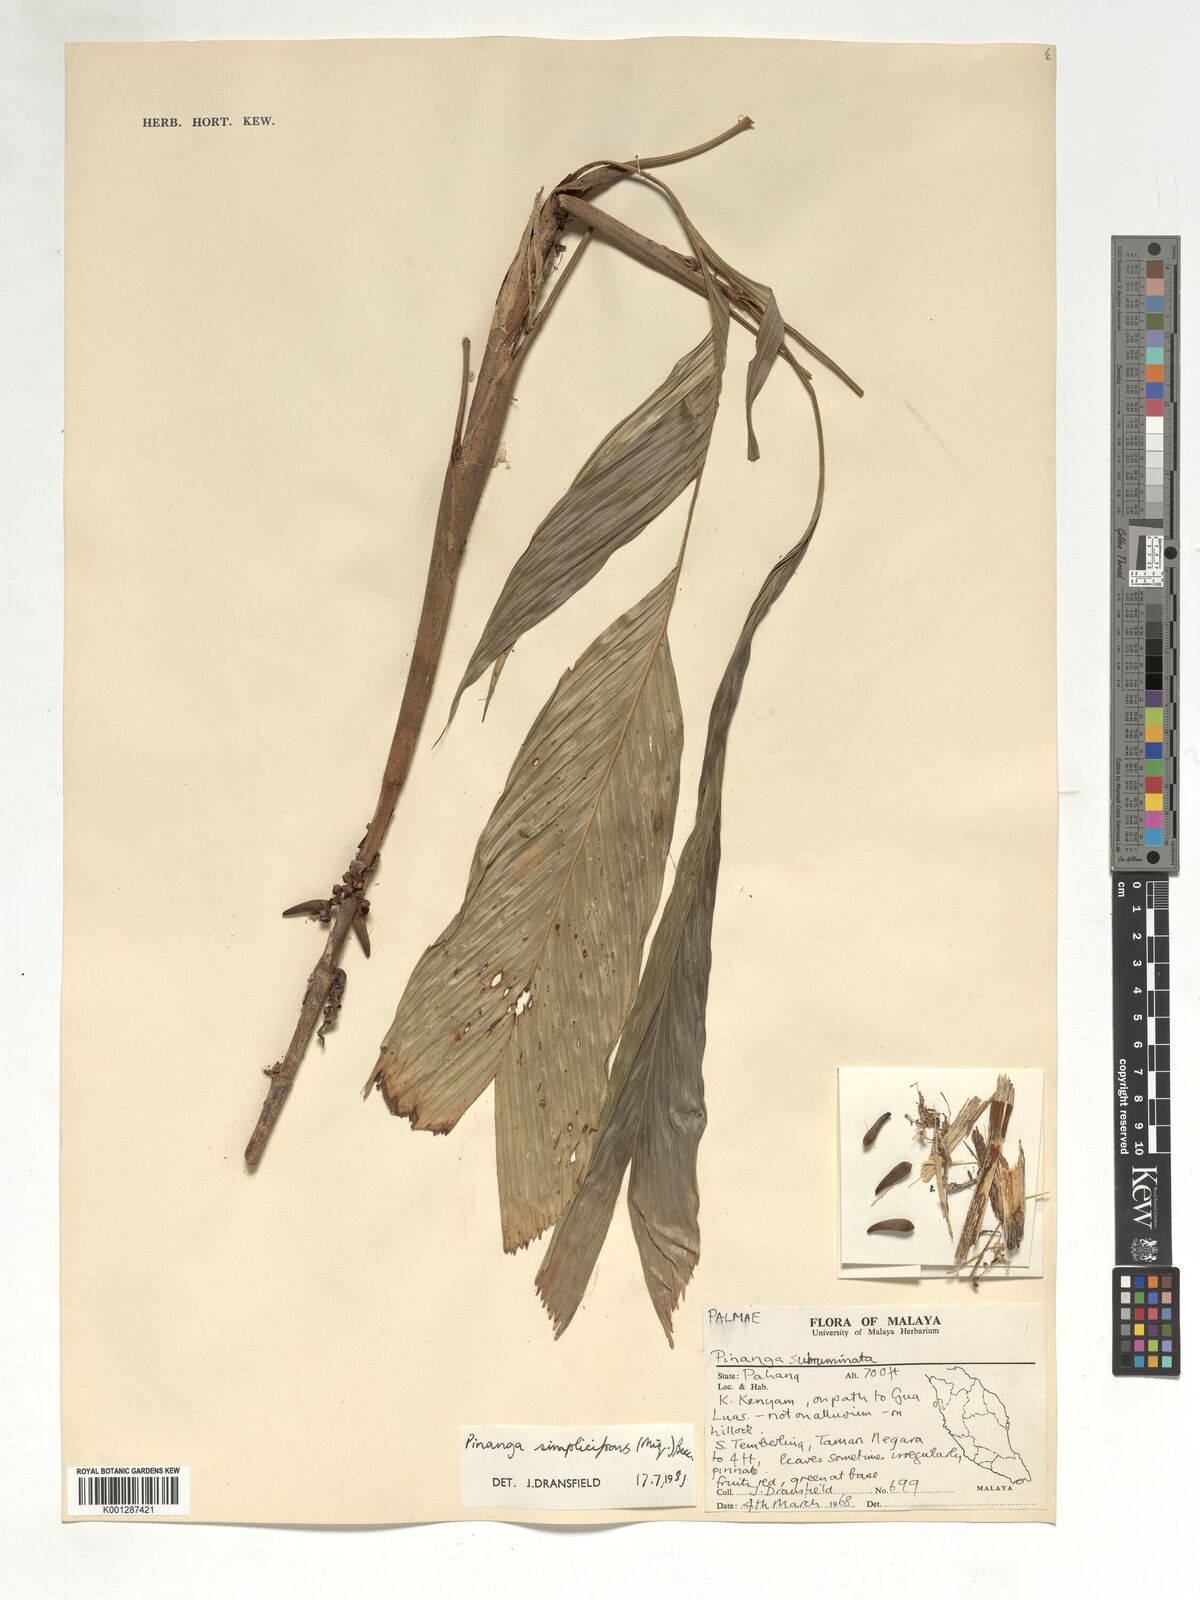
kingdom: Plantae
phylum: Tracheophyta
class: Liliopsida
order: Arecales
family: Arecaceae
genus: Pinanga
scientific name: Pinanga simplicifrons
